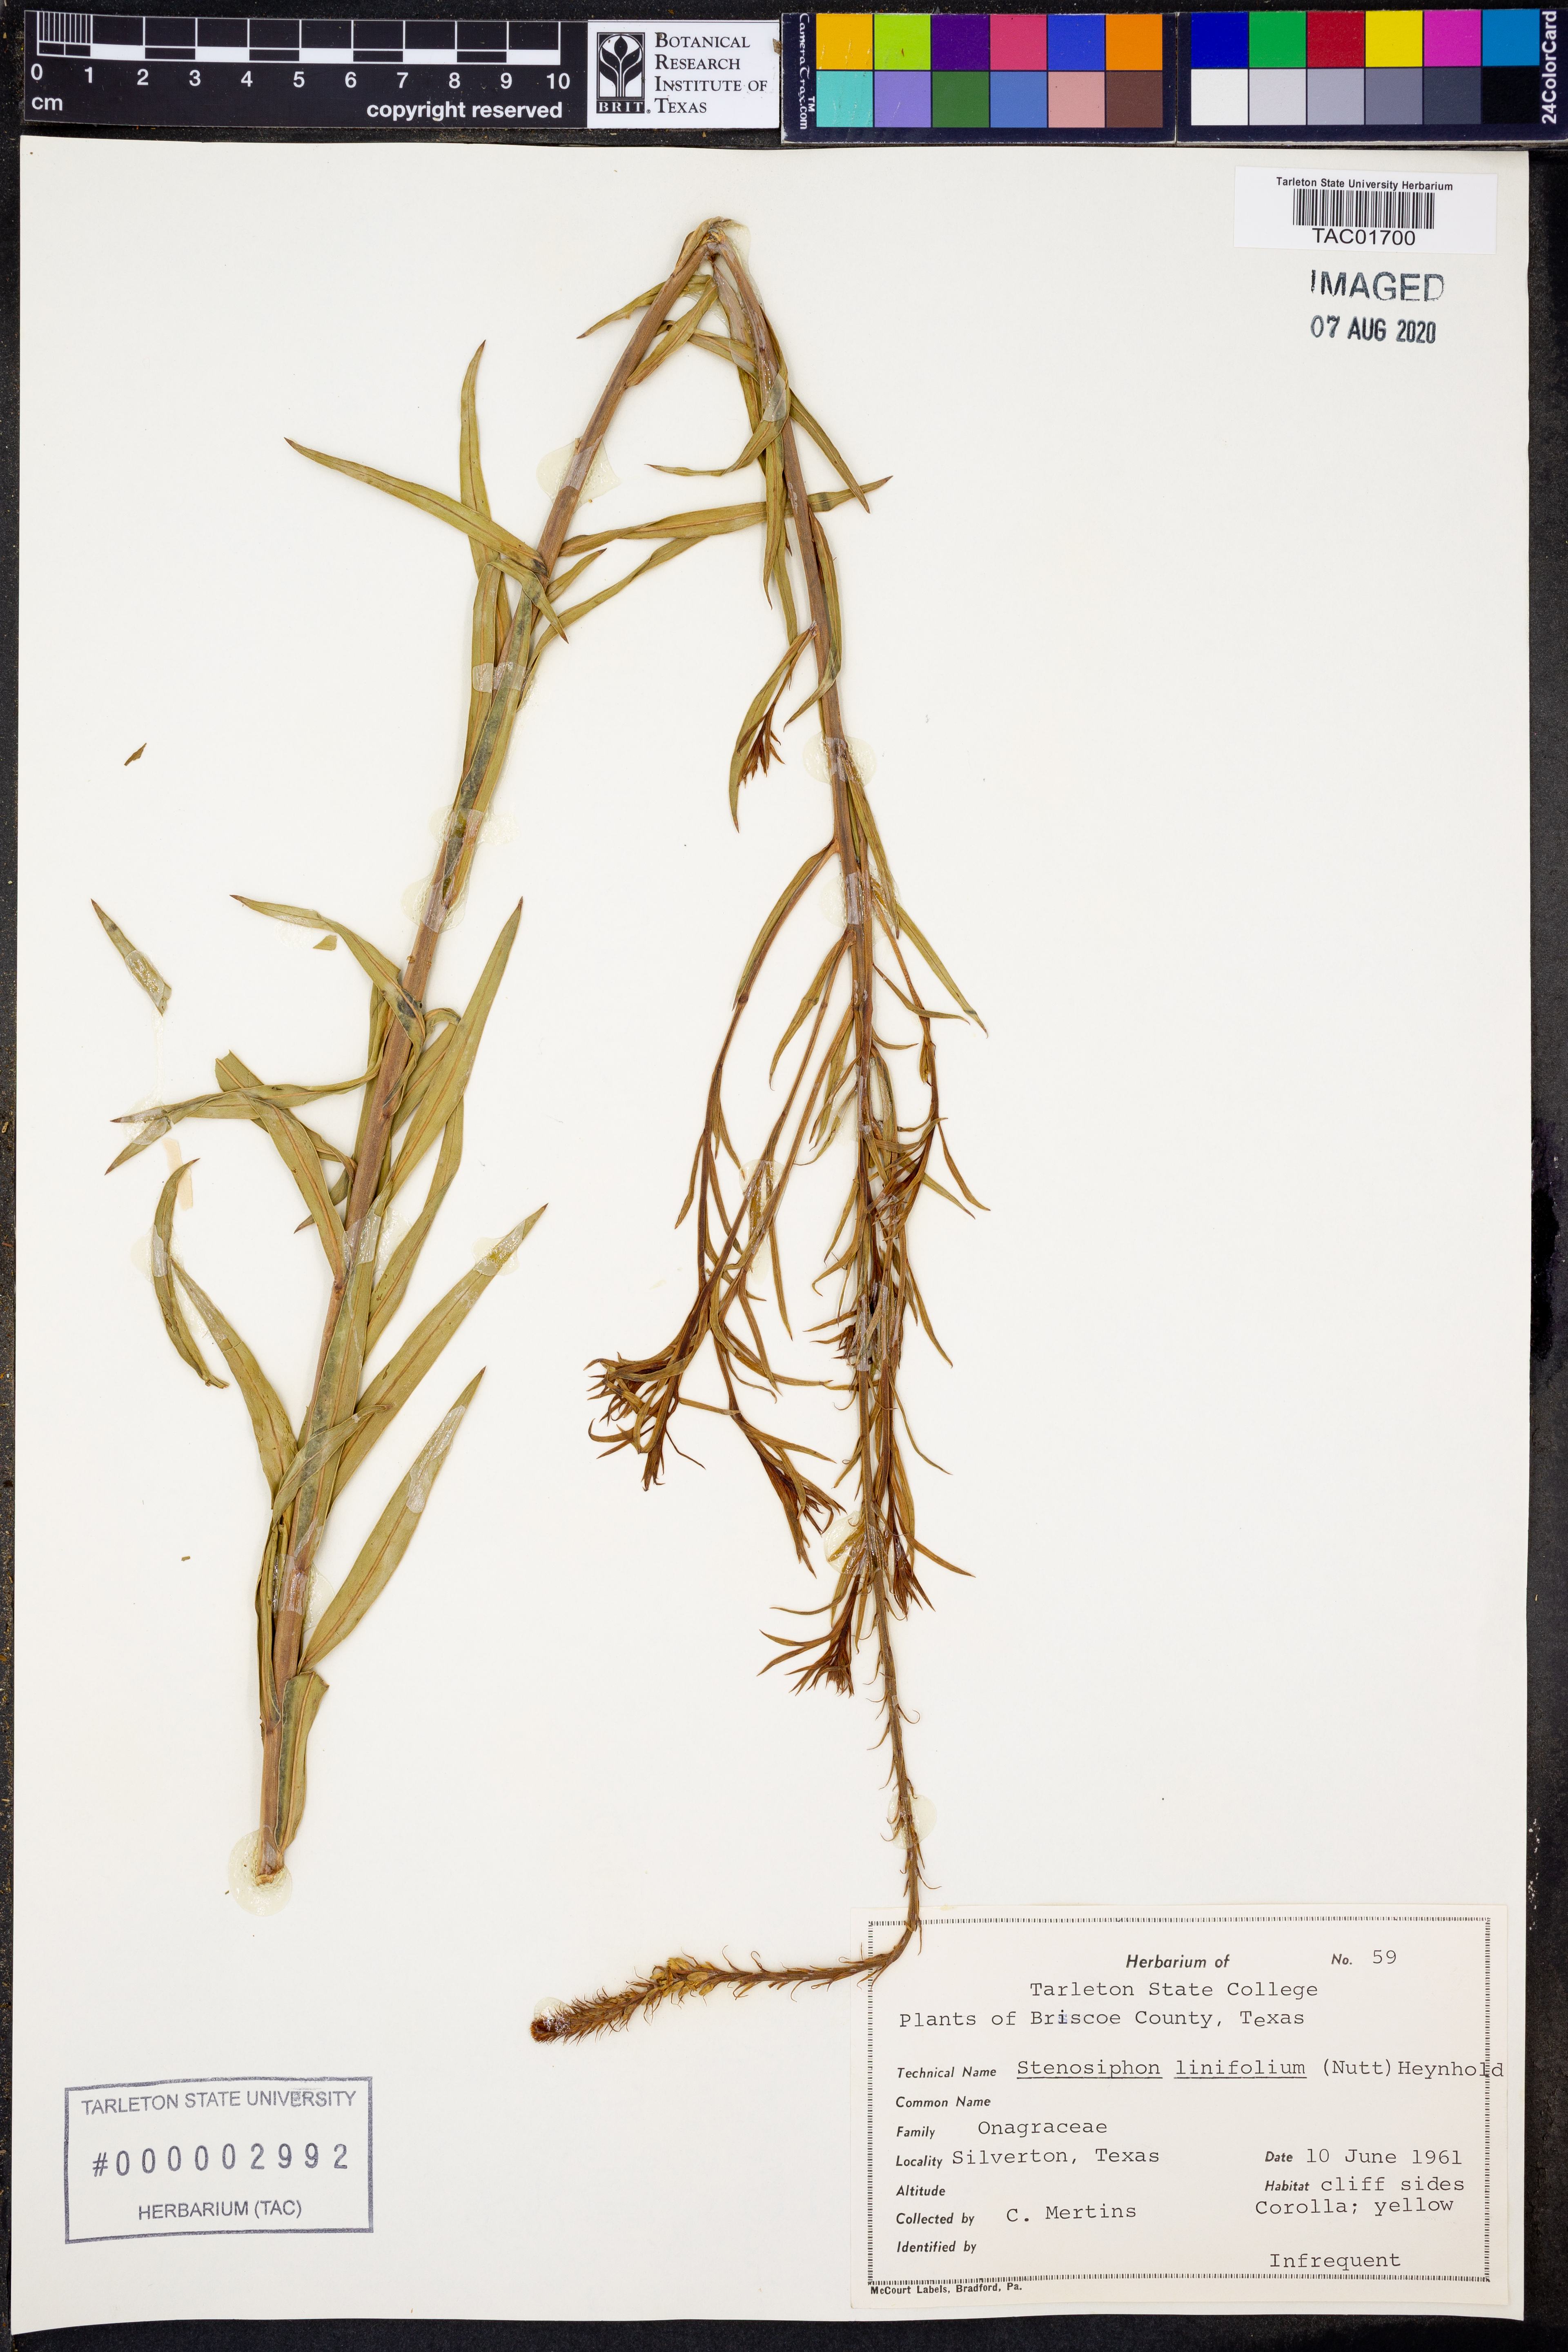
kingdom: Plantae
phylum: Tracheophyta
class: Magnoliopsida
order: Myrtales
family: Onagraceae
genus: Oenothera
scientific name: Oenothera glaucifolia
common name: False gaura
